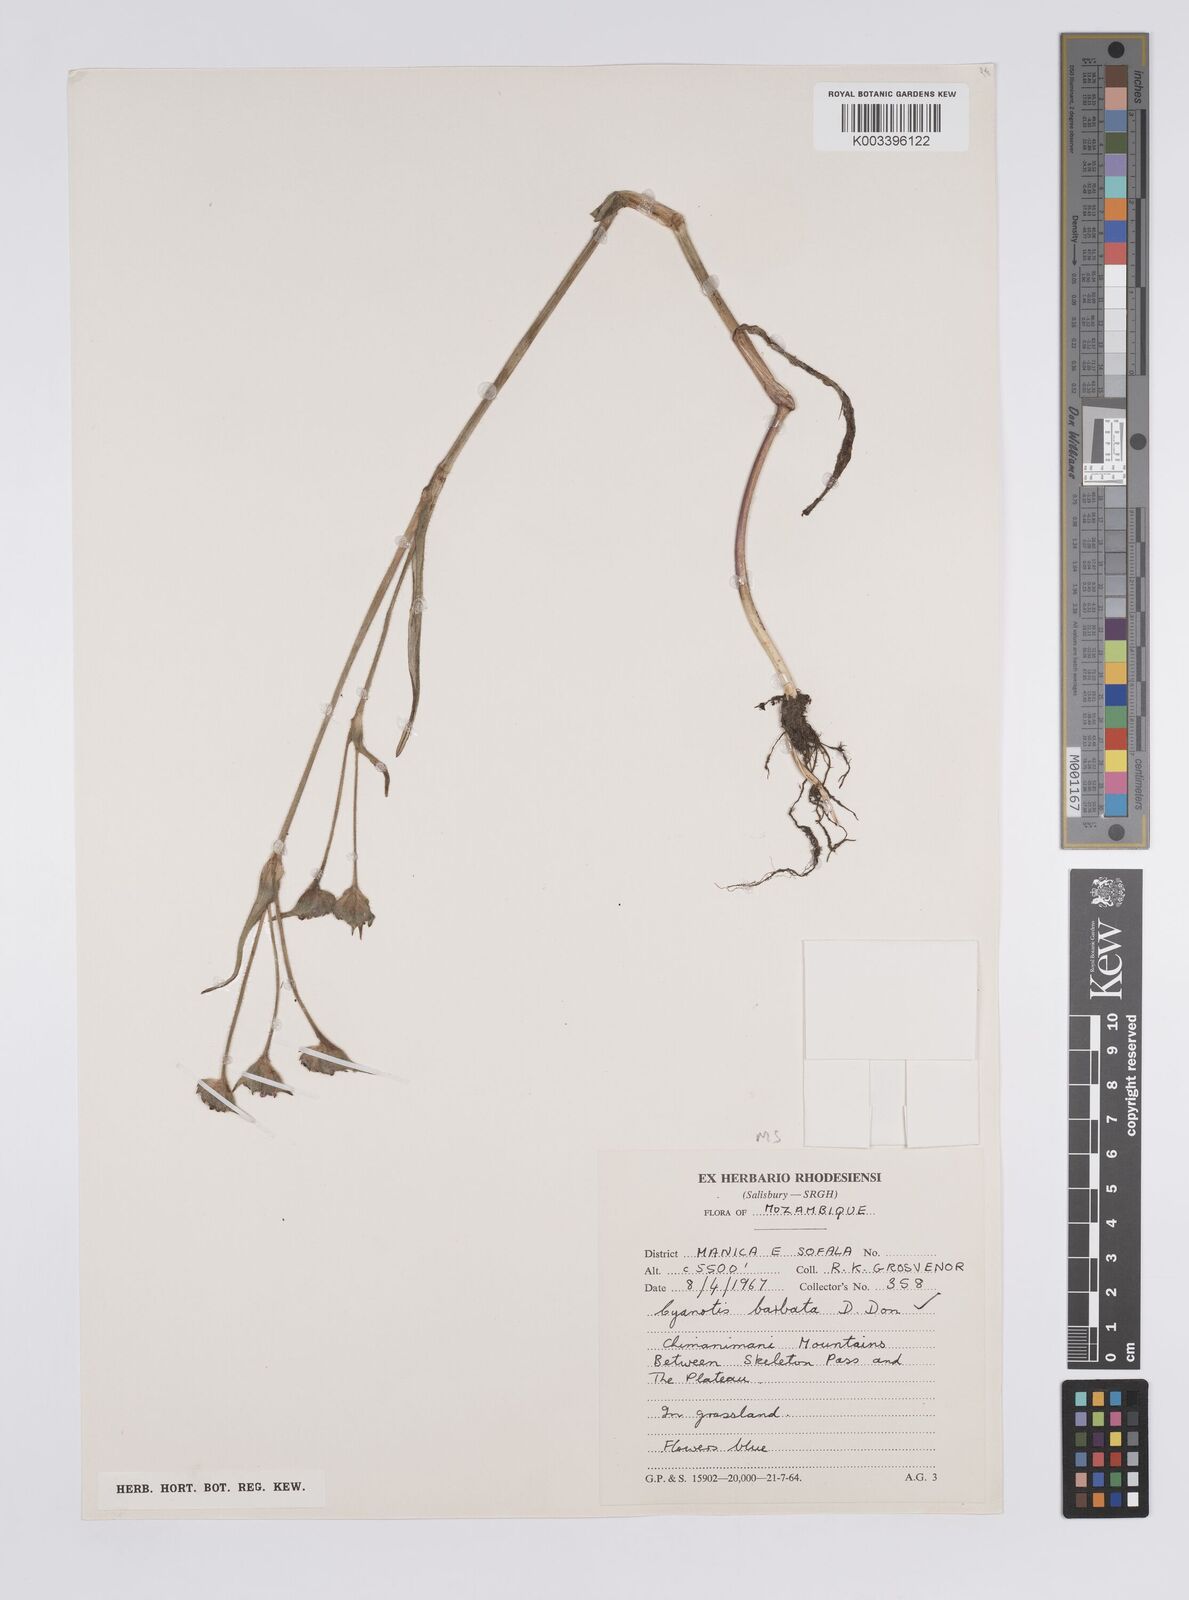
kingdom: Plantae
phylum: Tracheophyta
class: Liliopsida
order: Commelinales
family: Commelinaceae
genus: Cyanotis
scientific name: Cyanotis vaga
